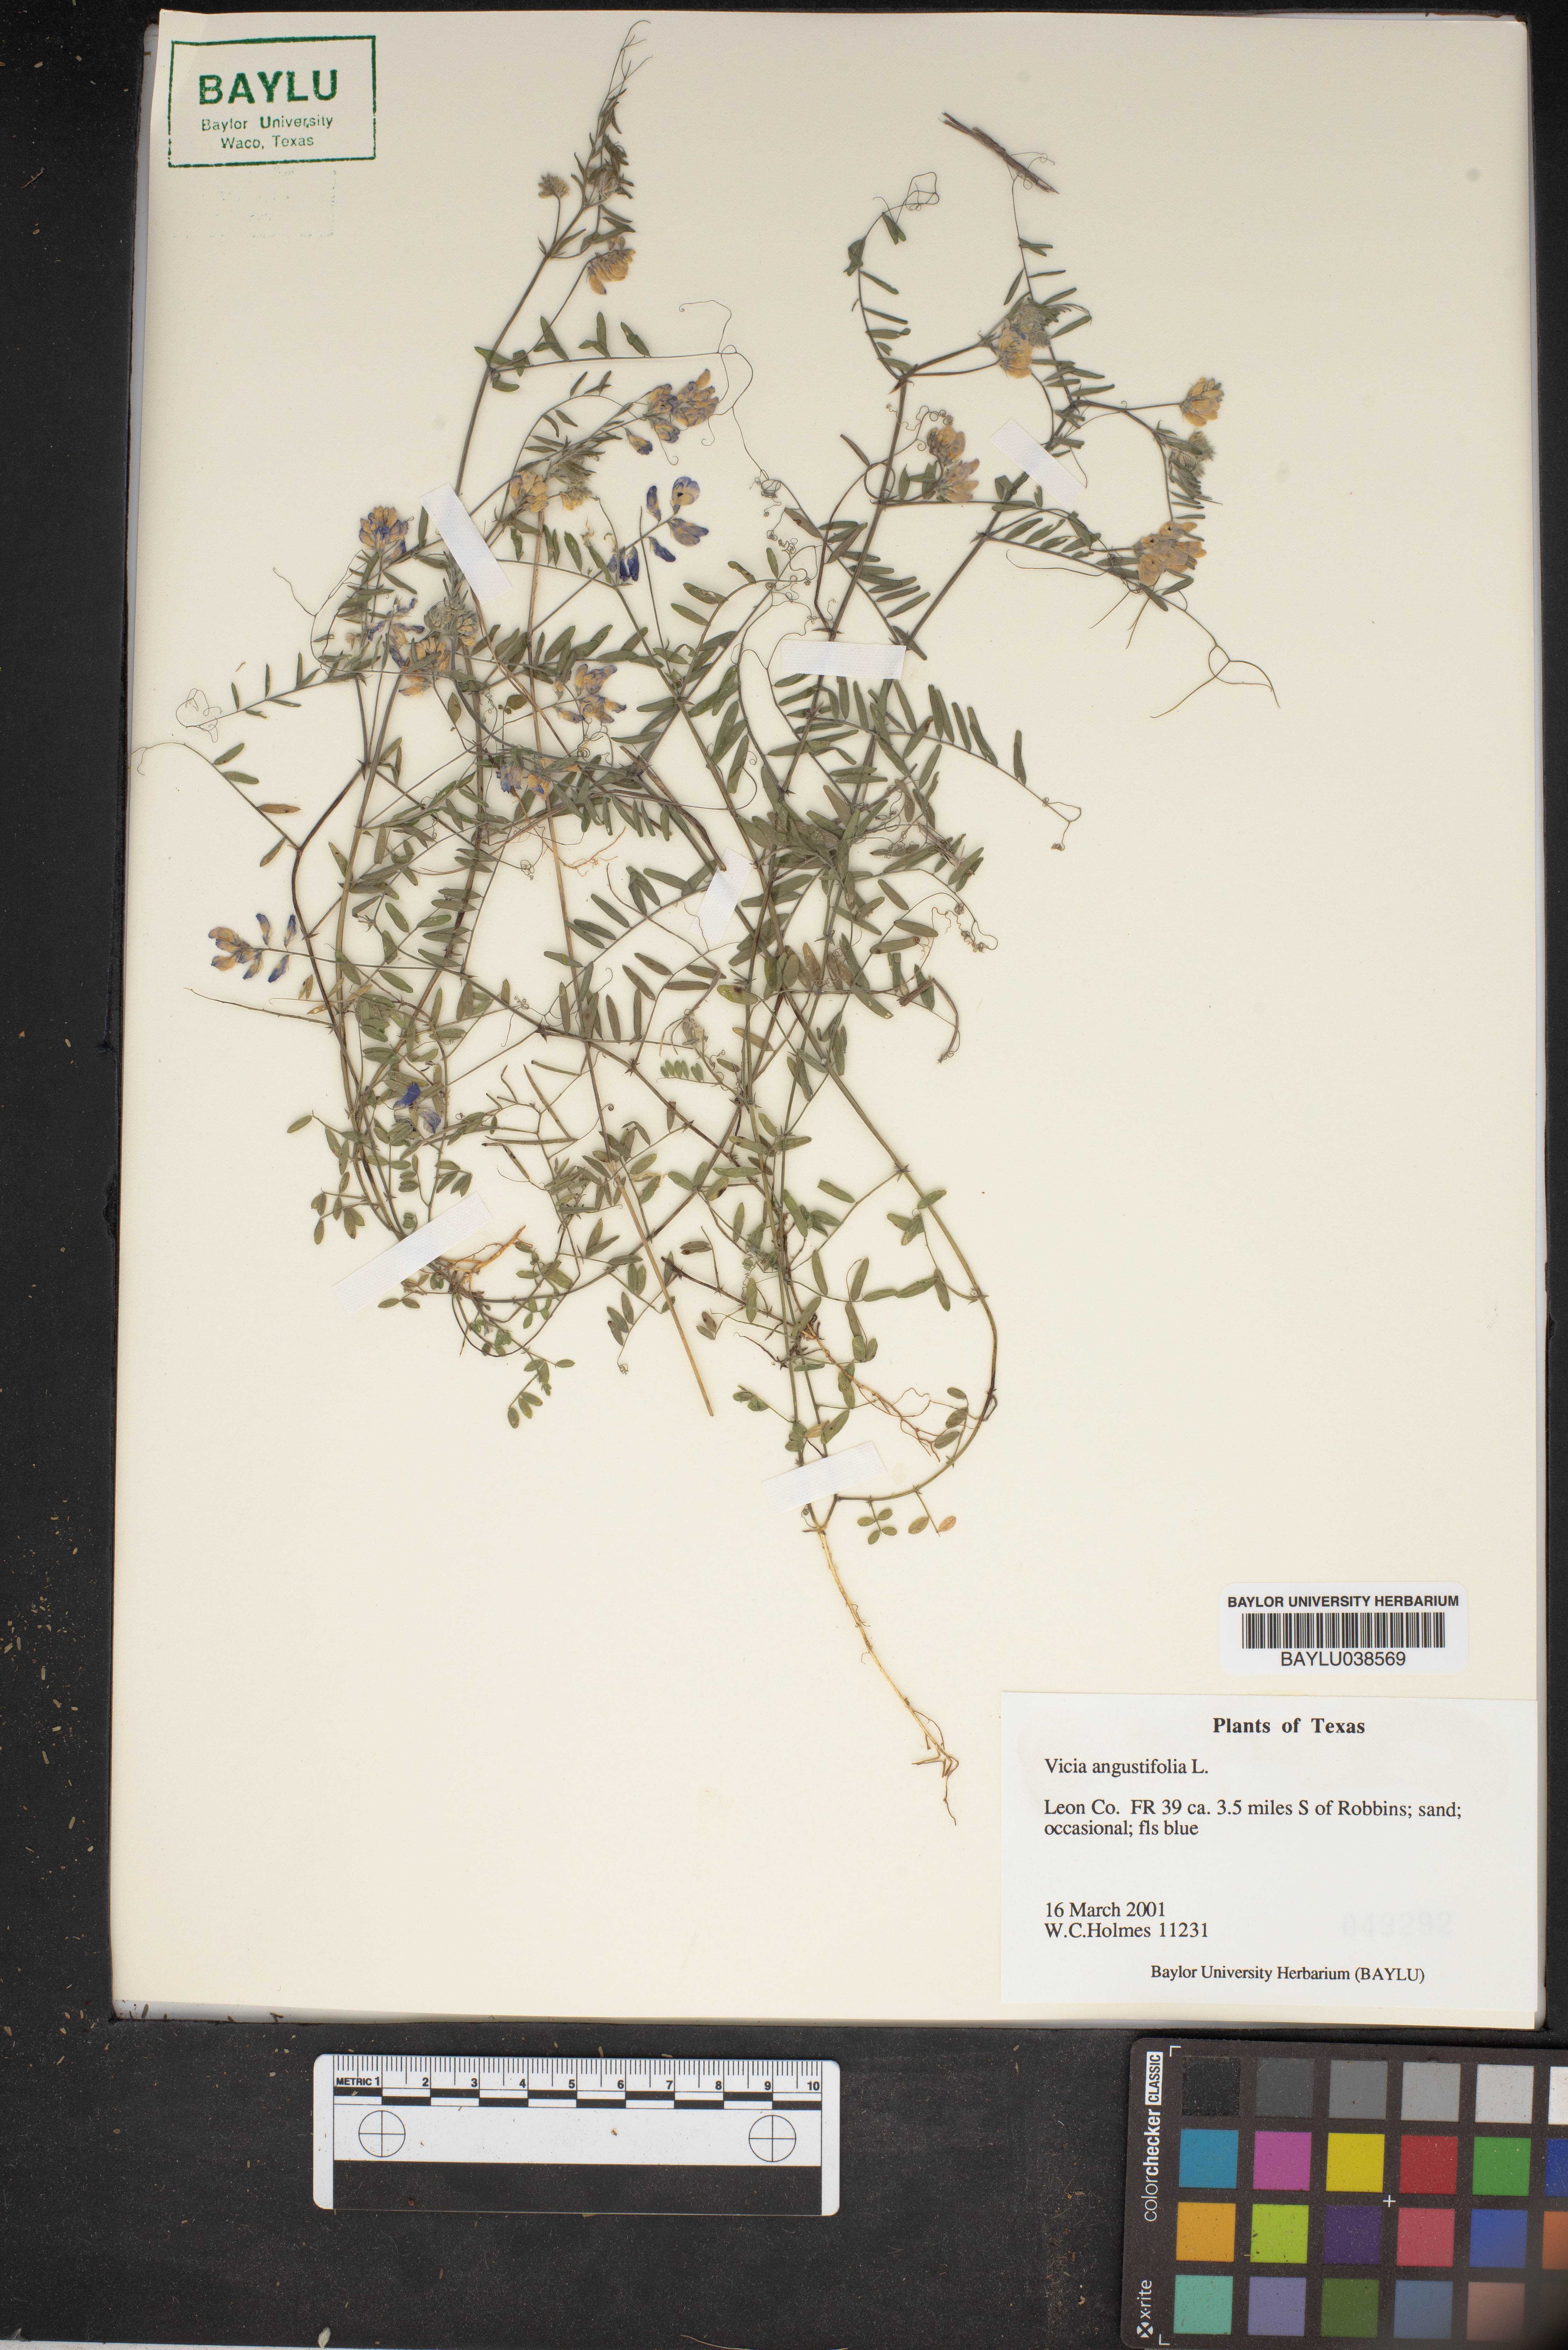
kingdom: Plantae
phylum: Tracheophyta
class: Magnoliopsida
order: Fabales
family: Fabaceae
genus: Vicia
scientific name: Vicia sativa
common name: Garden vetch
